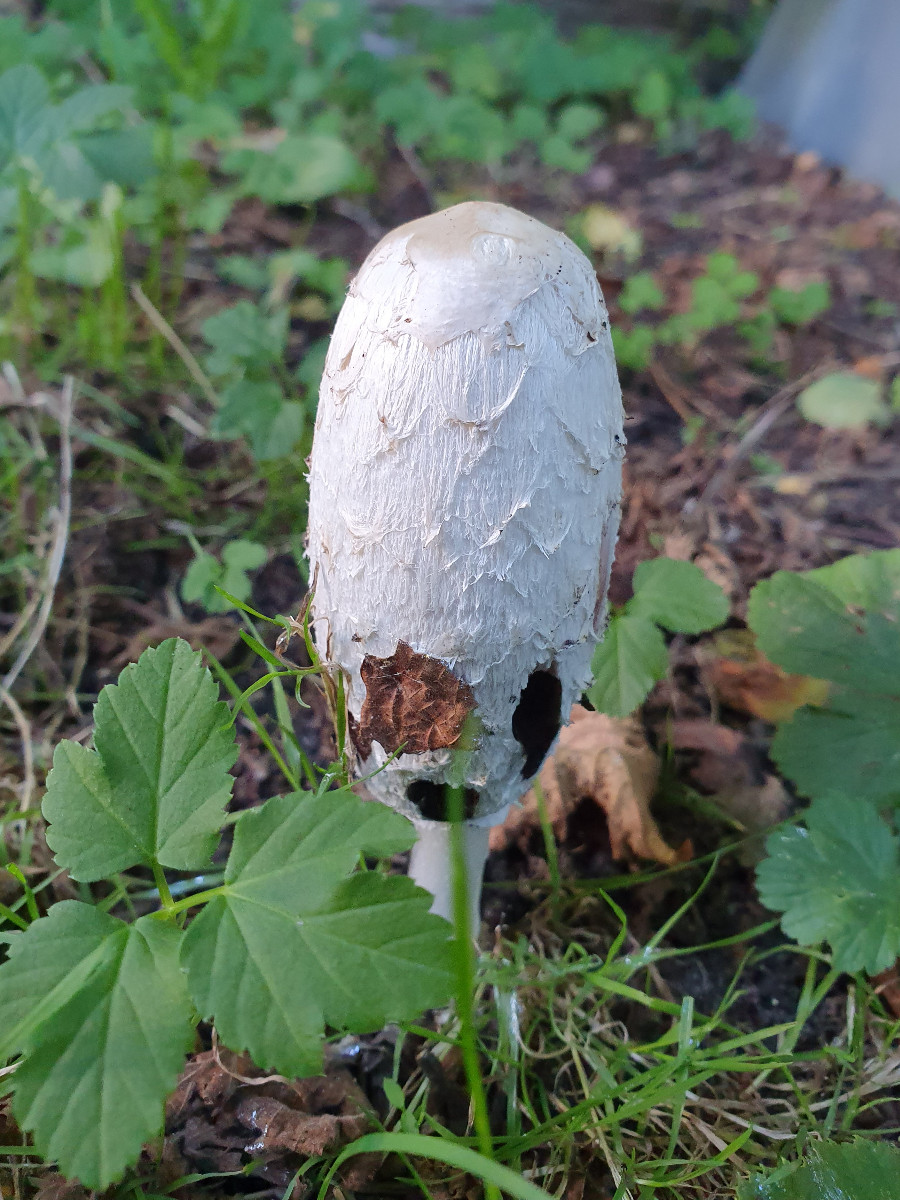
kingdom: Fungi
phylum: Basidiomycota
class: Agaricomycetes
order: Agaricales
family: Agaricaceae
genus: Coprinus
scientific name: Coprinus comatus
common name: stor parykhat
